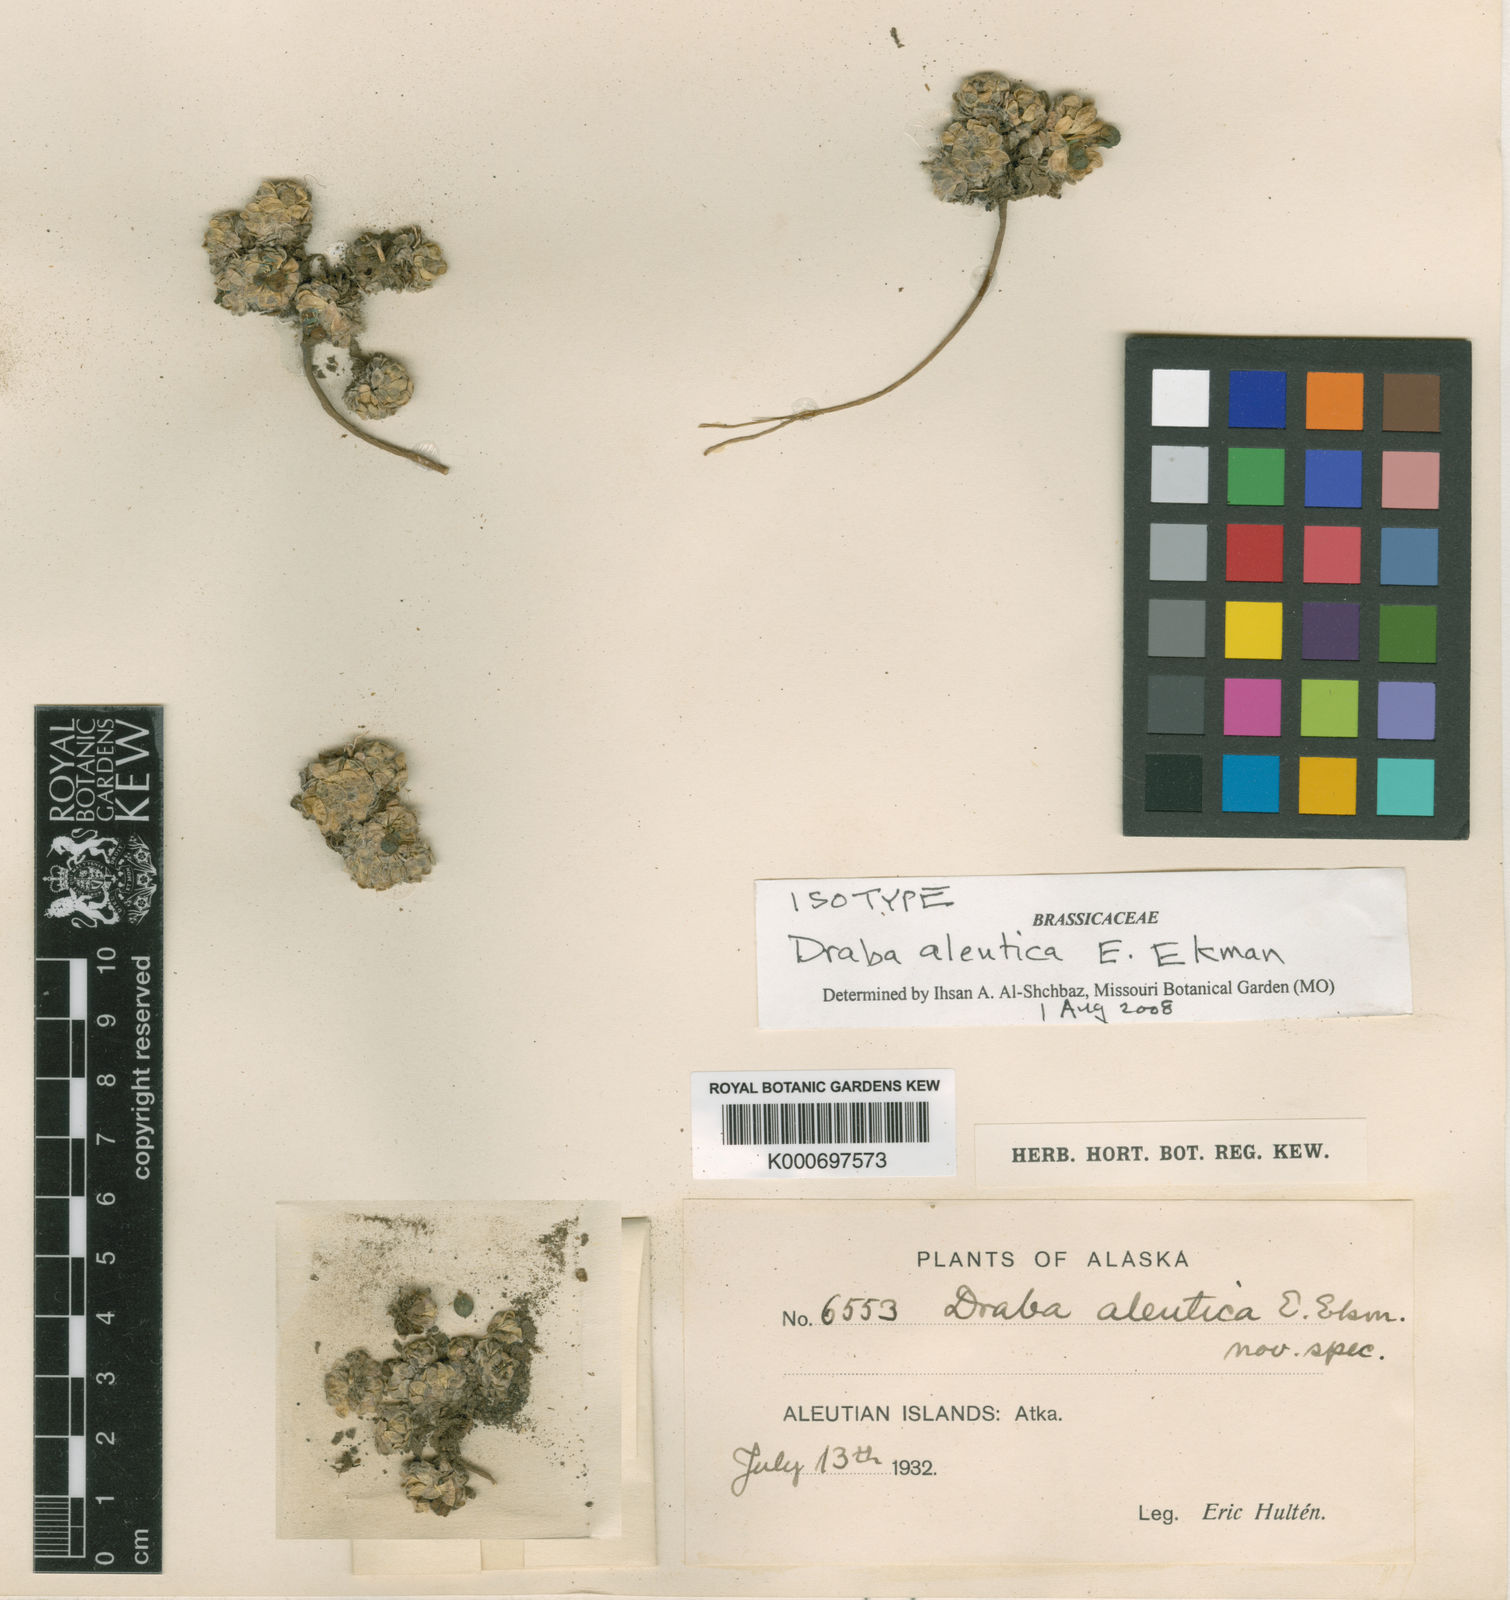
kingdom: Plantae
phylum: Tracheophyta
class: Magnoliopsida
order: Brassicales
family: Brassicaceae
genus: Draba
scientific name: Draba tschuktschorum
